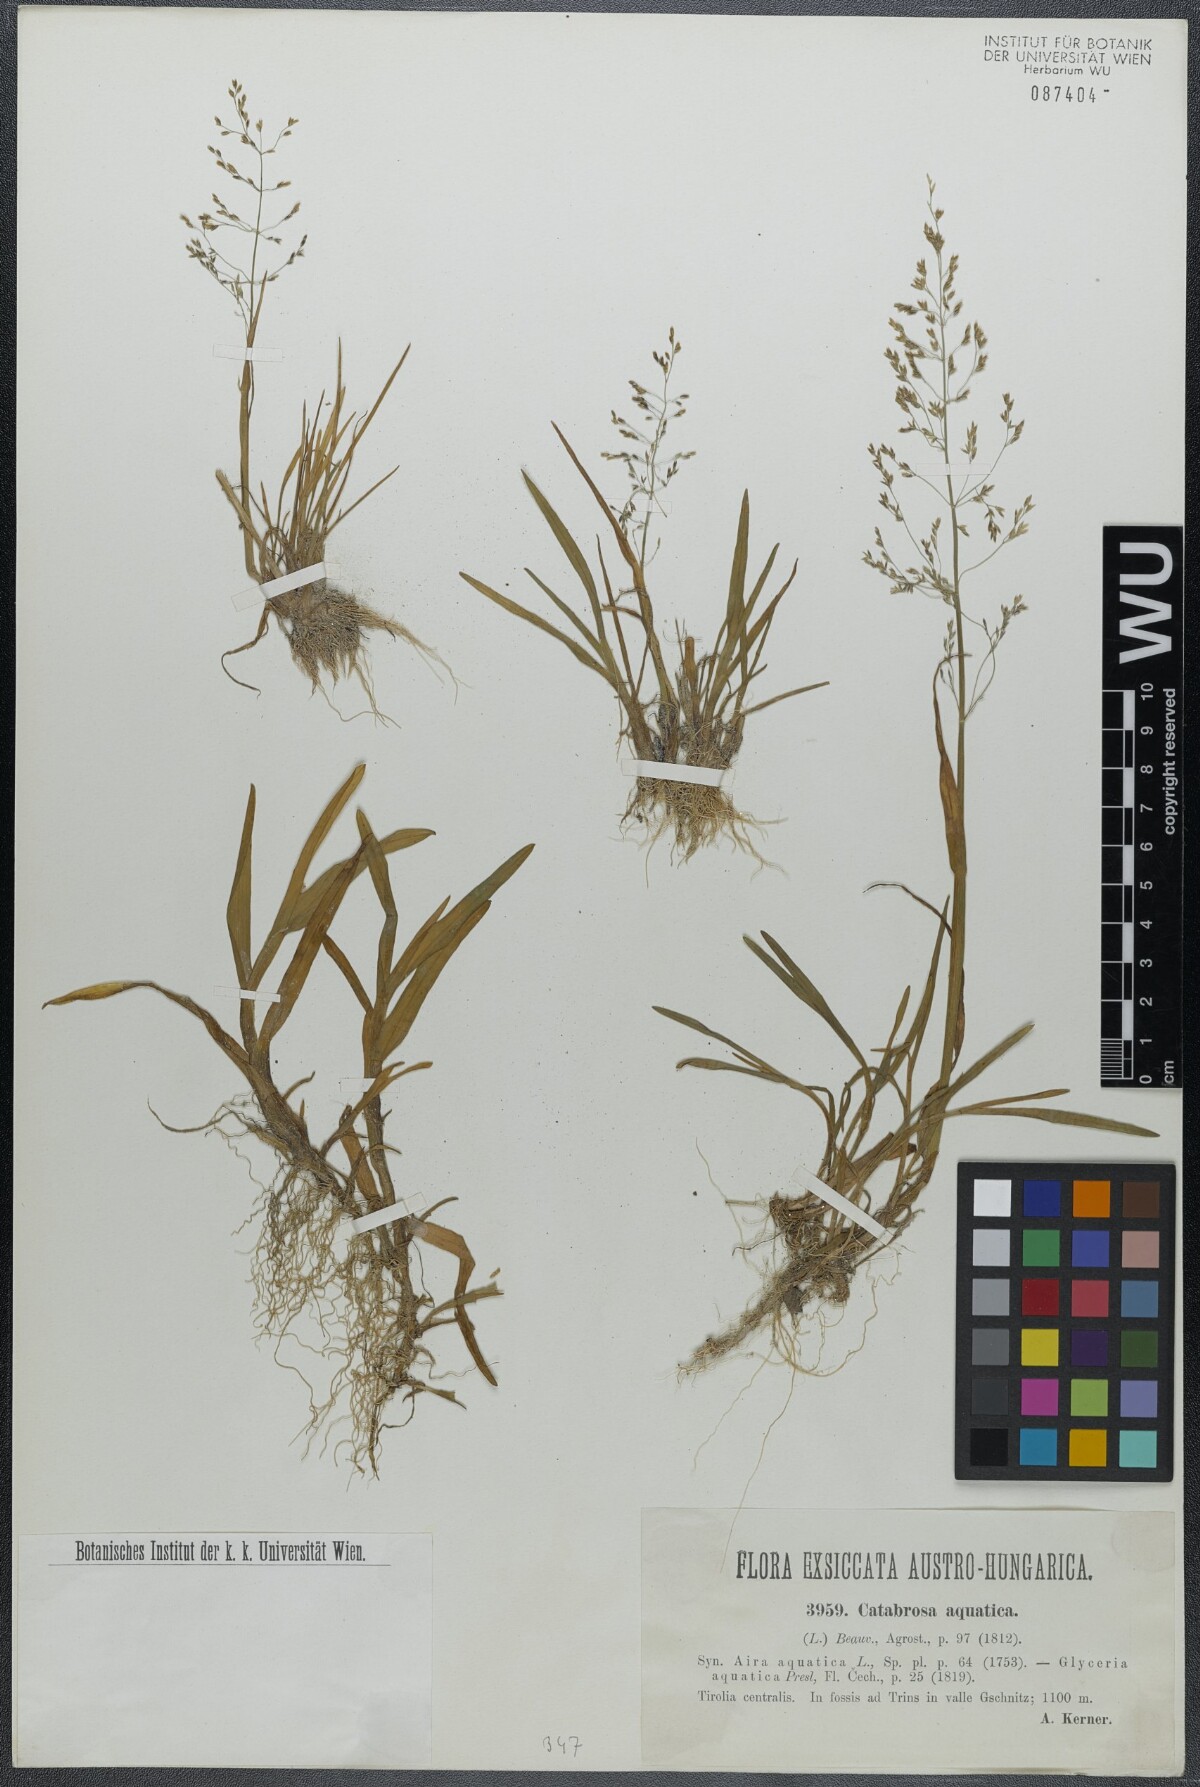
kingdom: Plantae
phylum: Tracheophyta
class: Liliopsida
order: Poales
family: Poaceae
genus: Catabrosa
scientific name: Catabrosa aquatica
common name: Whorl-grass
